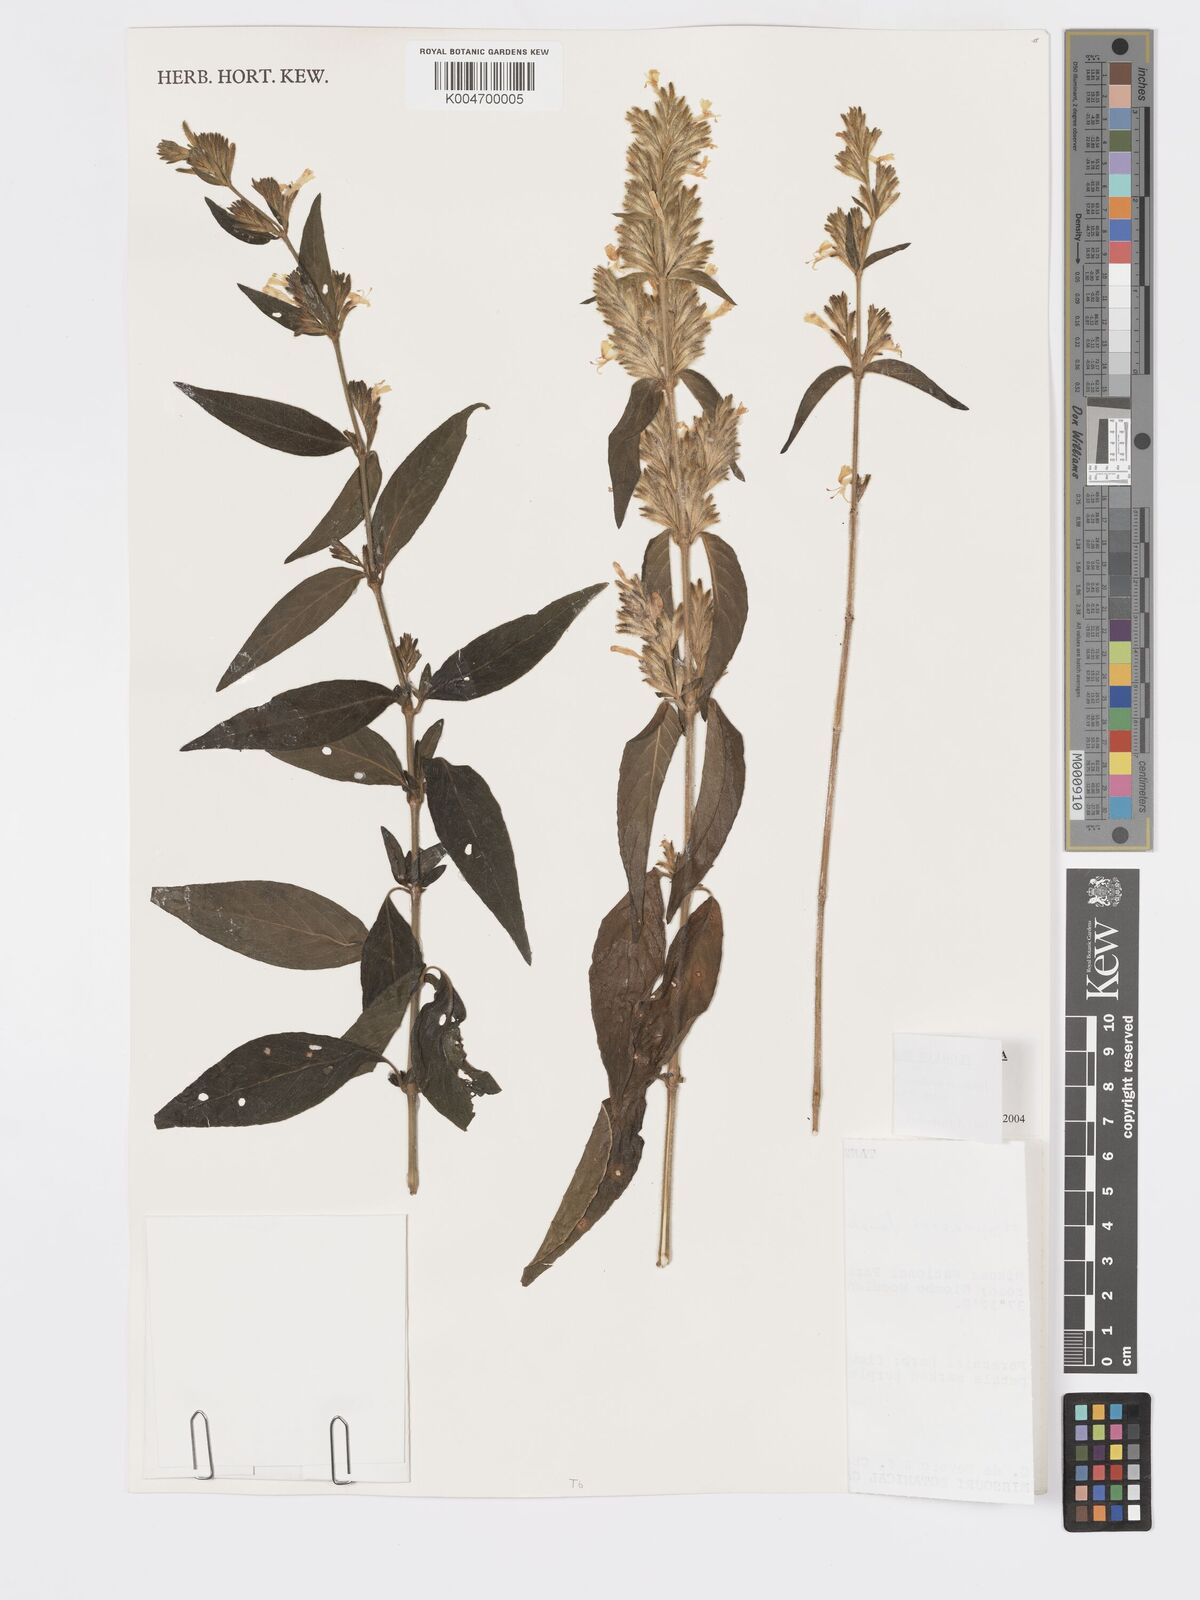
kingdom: Plantae
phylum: Tracheophyta
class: Magnoliopsida
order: Lamiales
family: Acanthaceae
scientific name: Acanthaceae
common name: Acanthaceae
